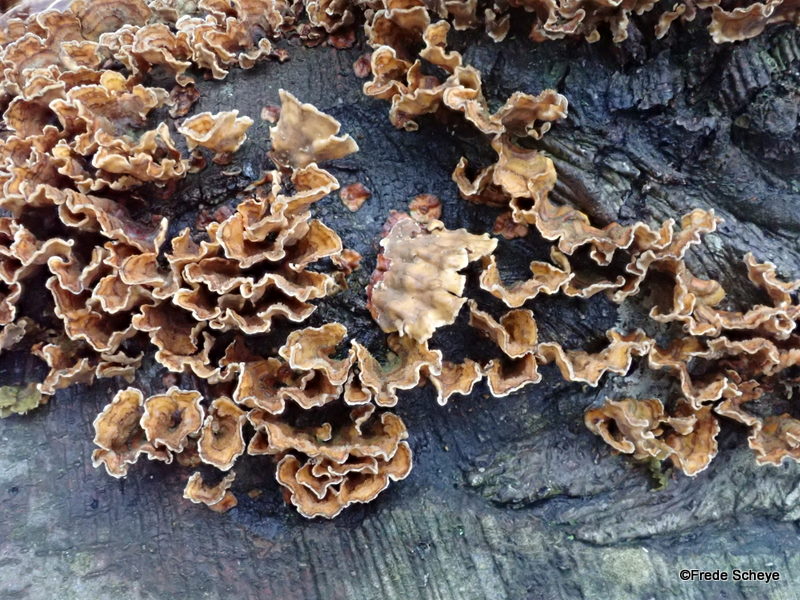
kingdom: Fungi
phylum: Basidiomycota
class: Agaricomycetes
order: Russulales
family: Stereaceae
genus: Stereum
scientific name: Stereum hirsutum
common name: håret lædersvamp
